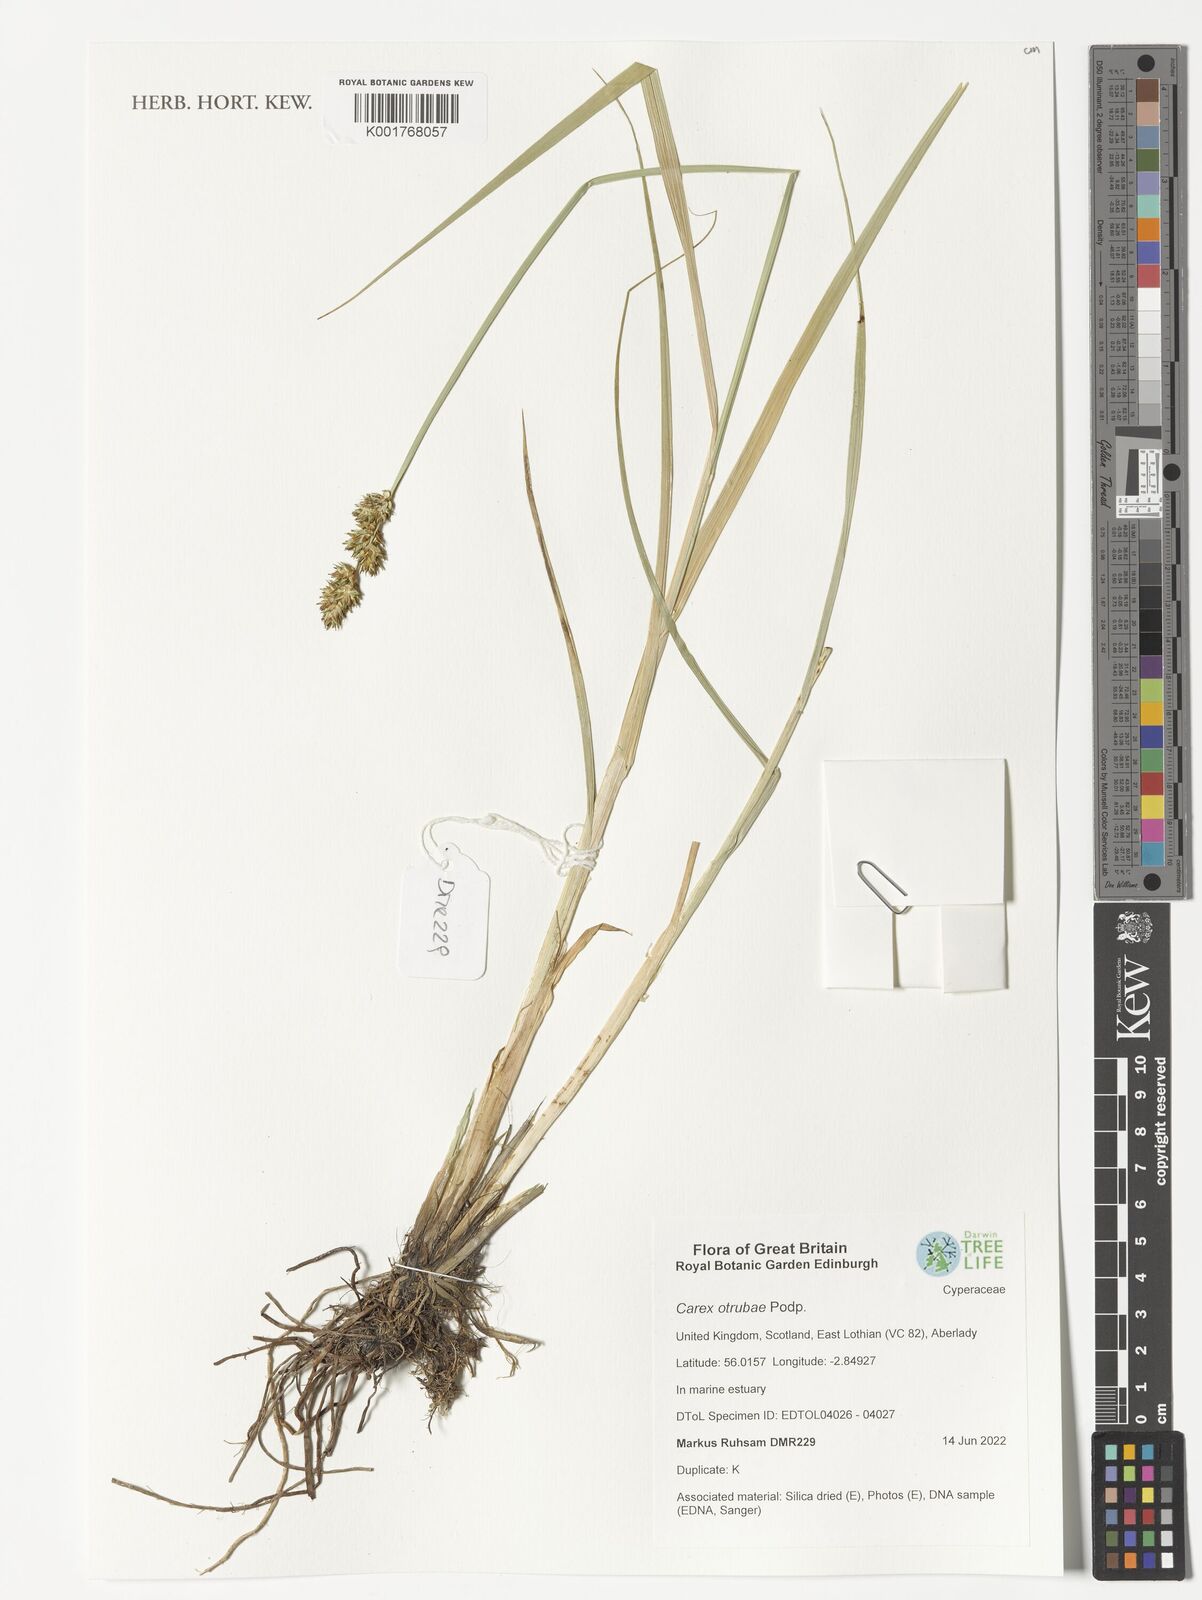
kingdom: Plantae
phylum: Tracheophyta
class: Liliopsida
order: Poales
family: Cyperaceae
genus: Carex
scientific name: Carex otrubae
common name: False fox-sedge
